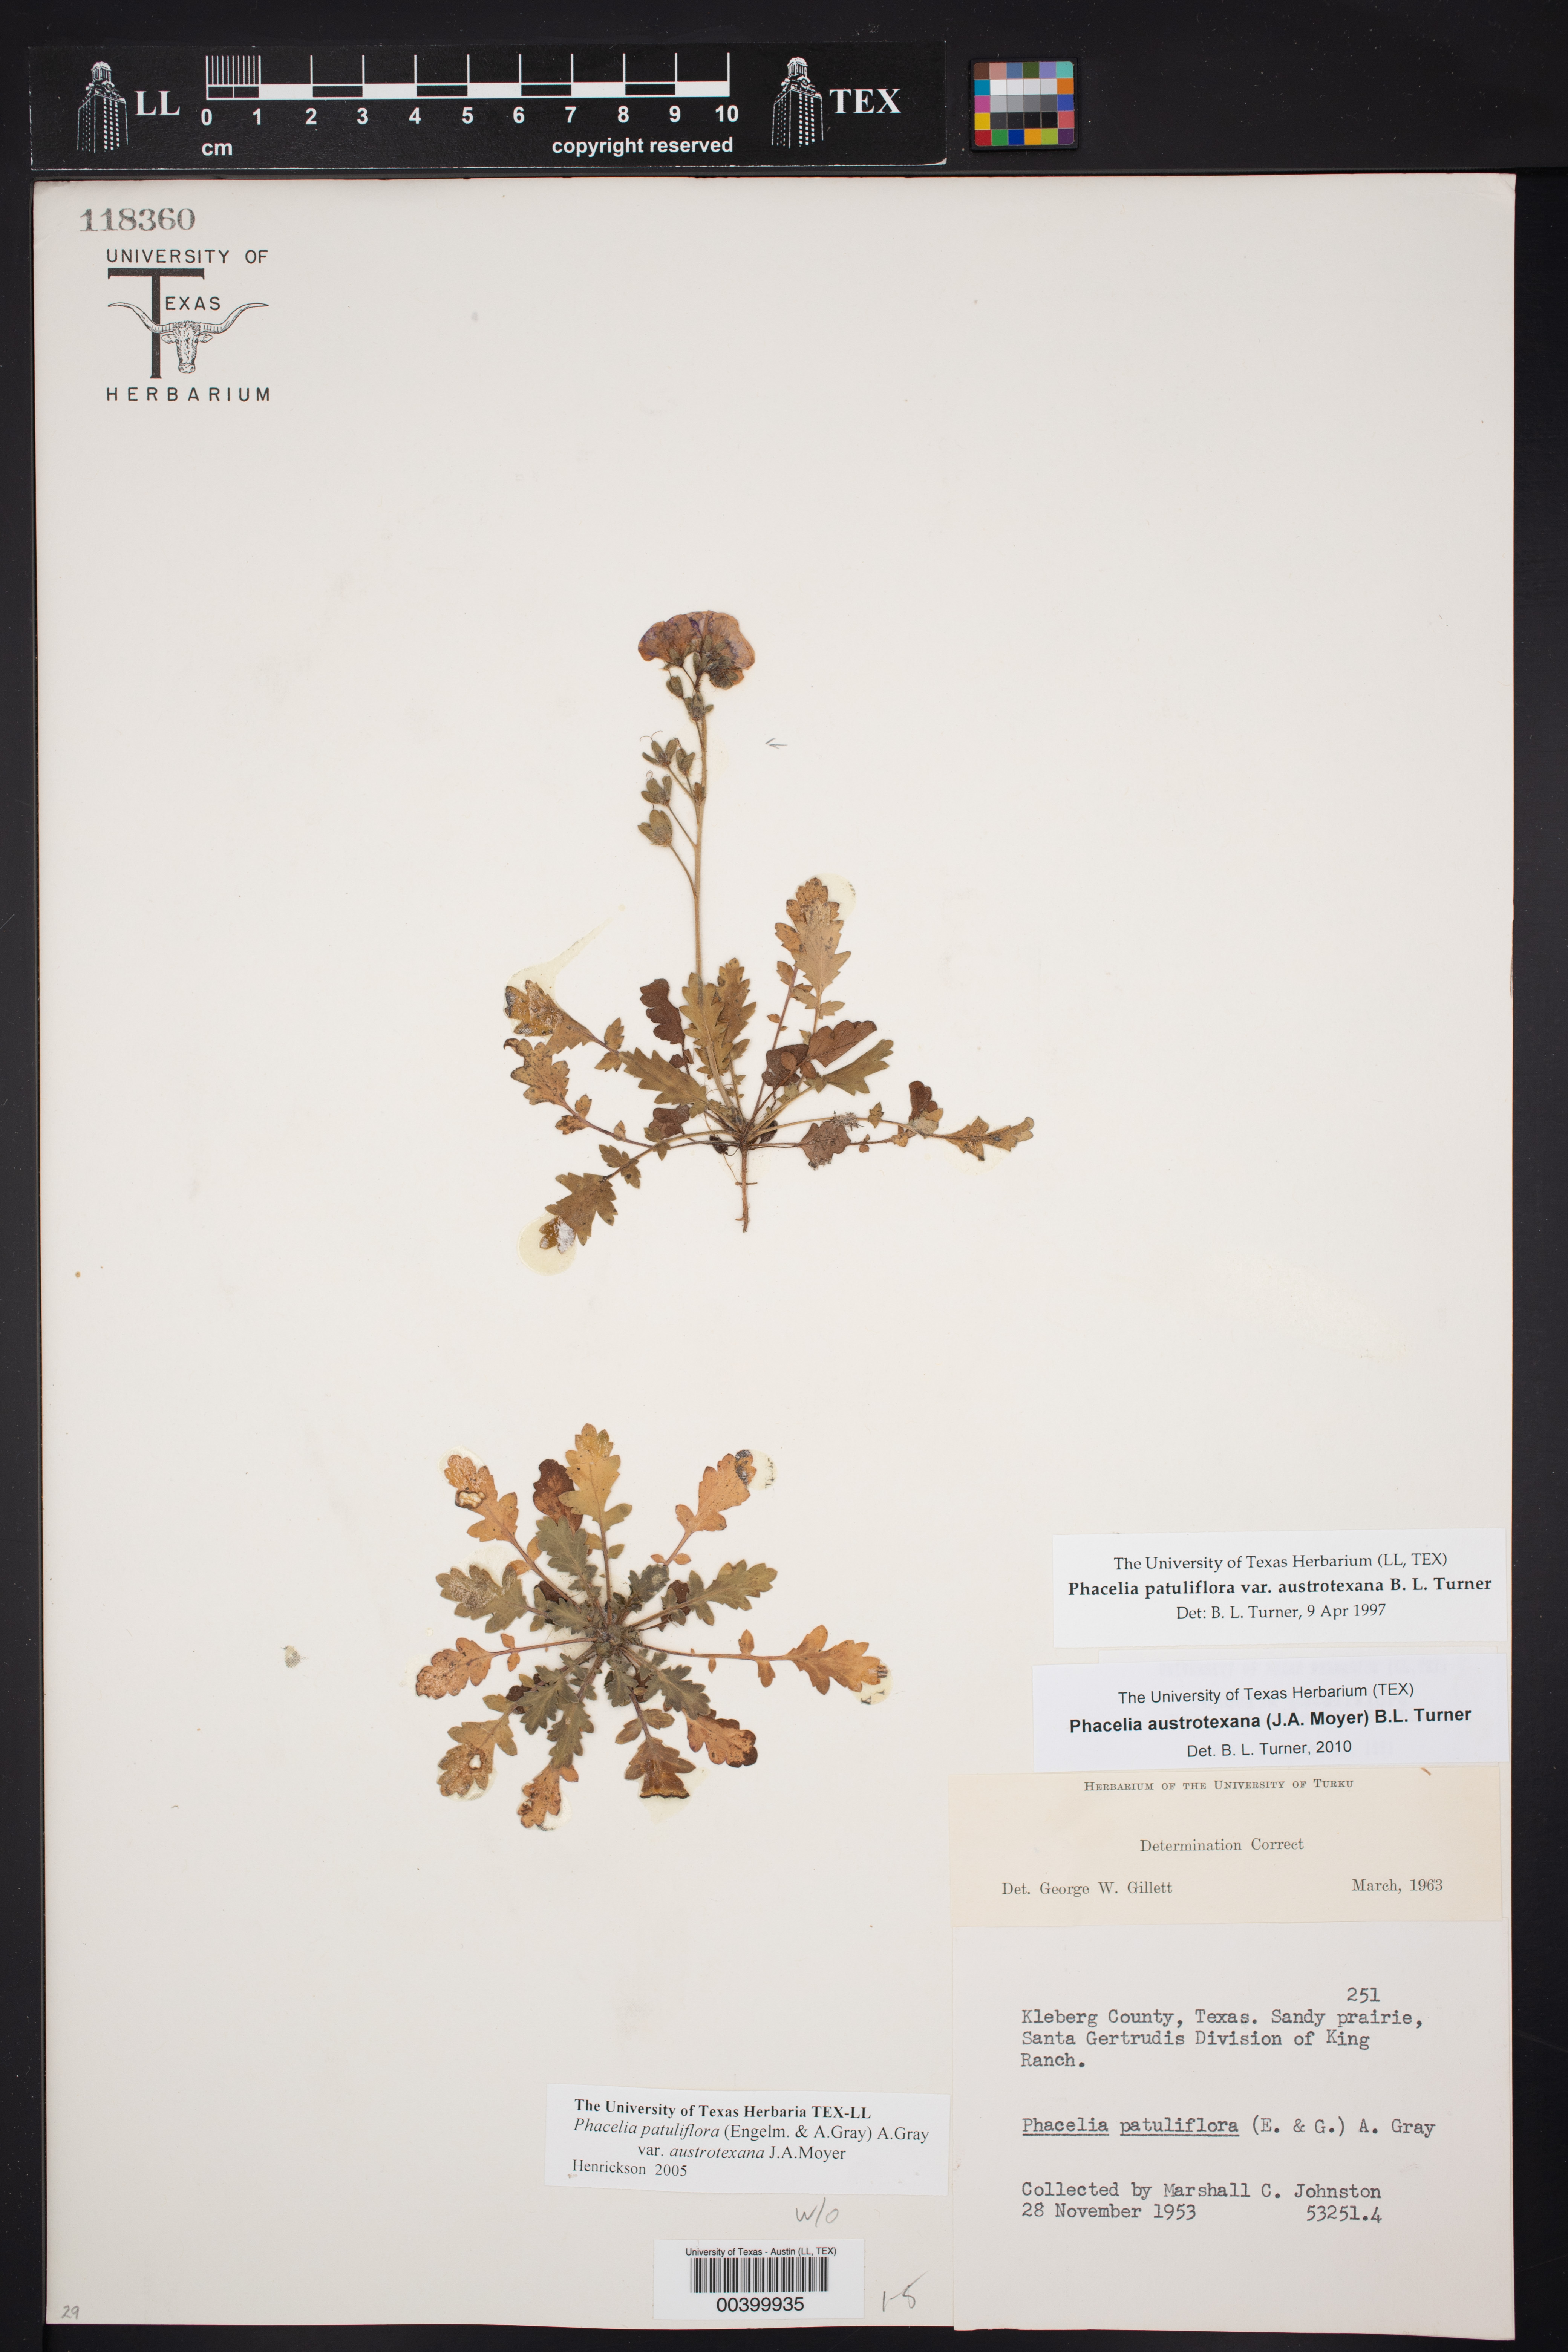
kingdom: Plantae
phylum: Tracheophyta
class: Magnoliopsida
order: Boraginales
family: Hydrophyllaceae
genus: Phacelia
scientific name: Phacelia austrotexana
